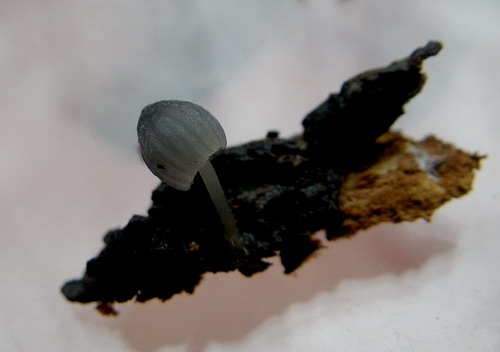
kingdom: Fungi
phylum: Basidiomycota
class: Agaricomycetes
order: Agaricales
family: Mycenaceae
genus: Mycena
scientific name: Mycena pseudocorticola
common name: gråblå bark-huesvamp
